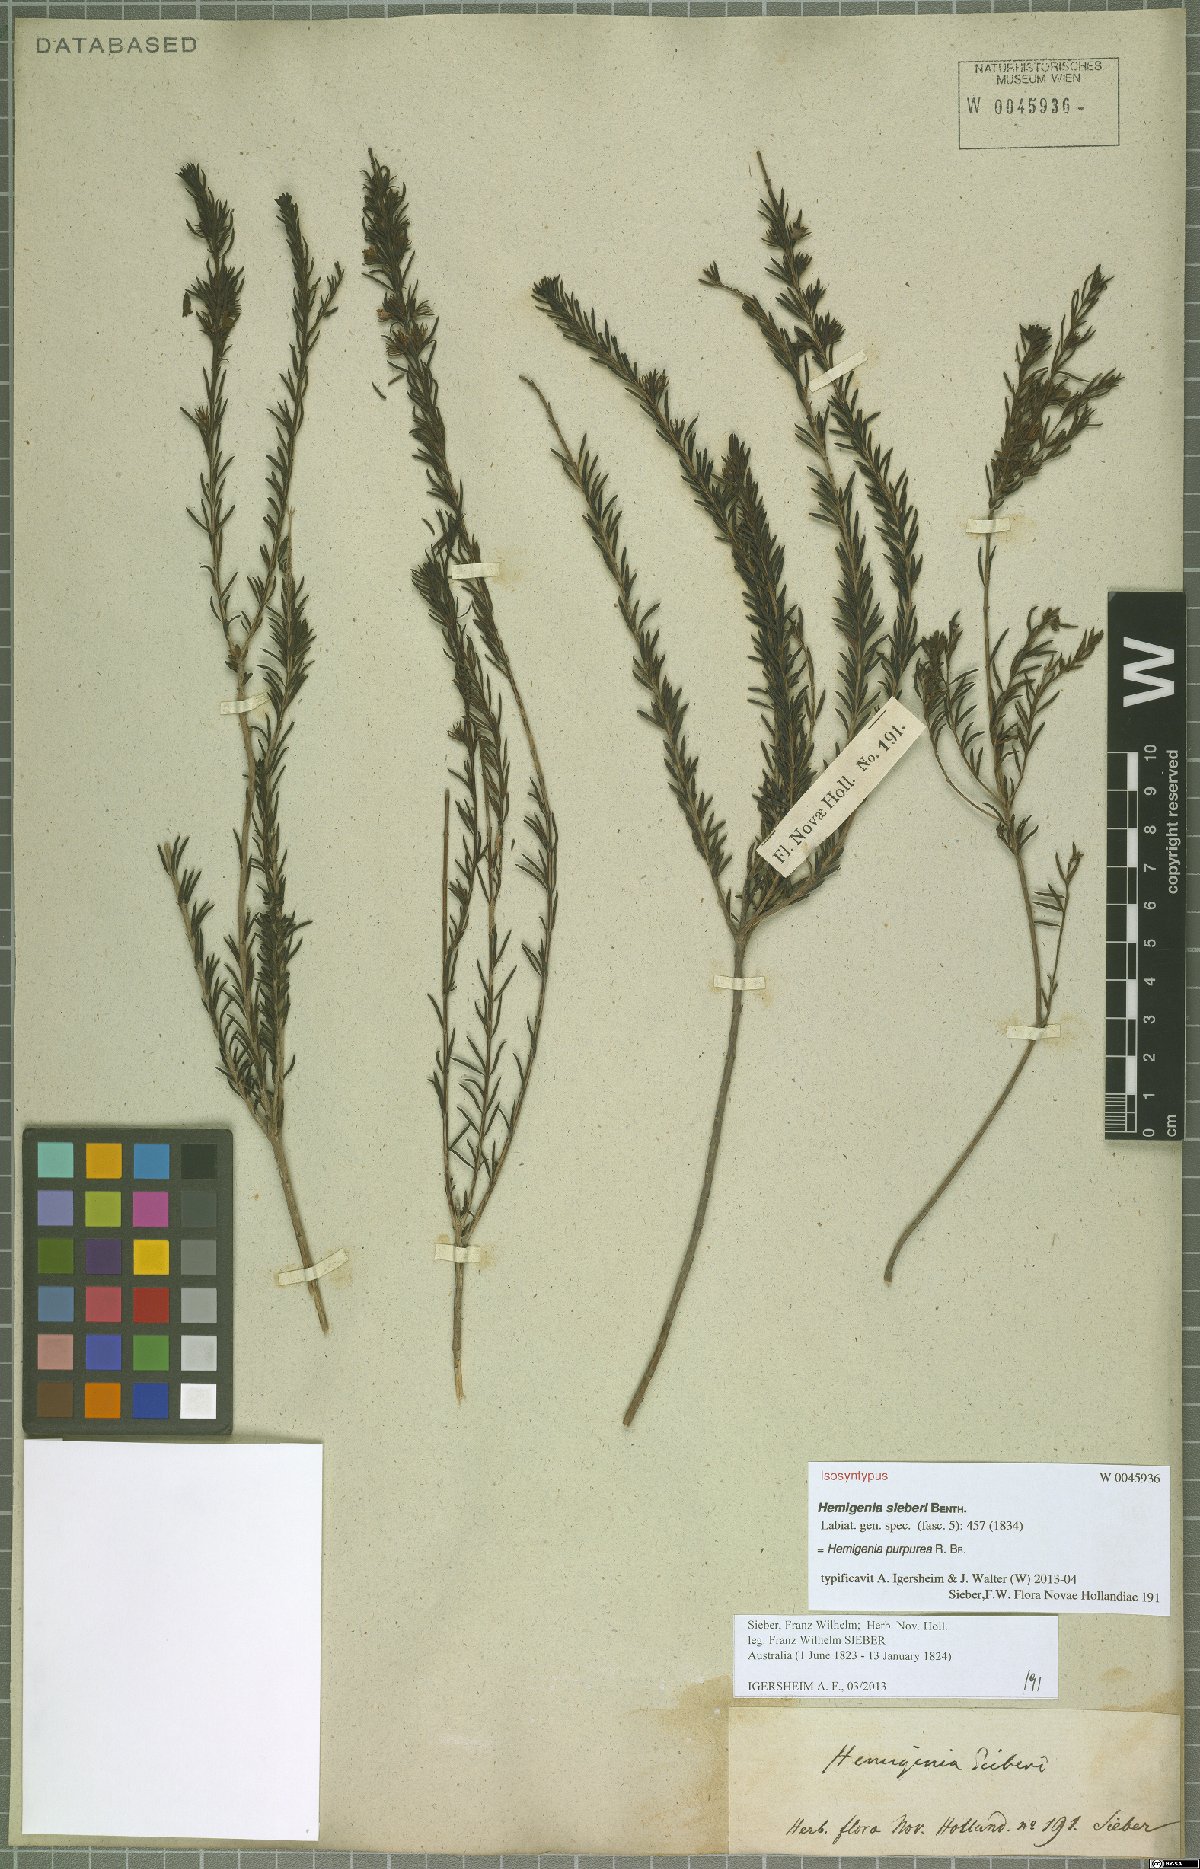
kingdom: Plantae
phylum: Tracheophyta
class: Magnoliopsida
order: Lamiales
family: Lamiaceae
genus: Hemigenia
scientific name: Hemigenia purpurea
